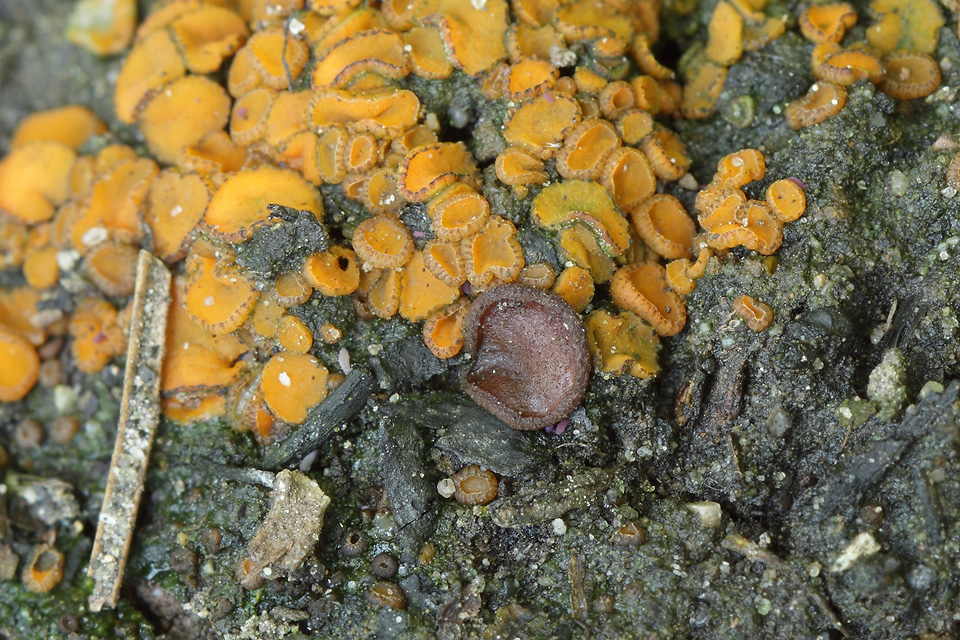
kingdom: Fungi
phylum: Ascomycota
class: Pezizomycetes
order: Pezizales
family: Ascobolaceae
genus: Ascobolus
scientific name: Ascobolus carbonarius
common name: kul-prikbæger
